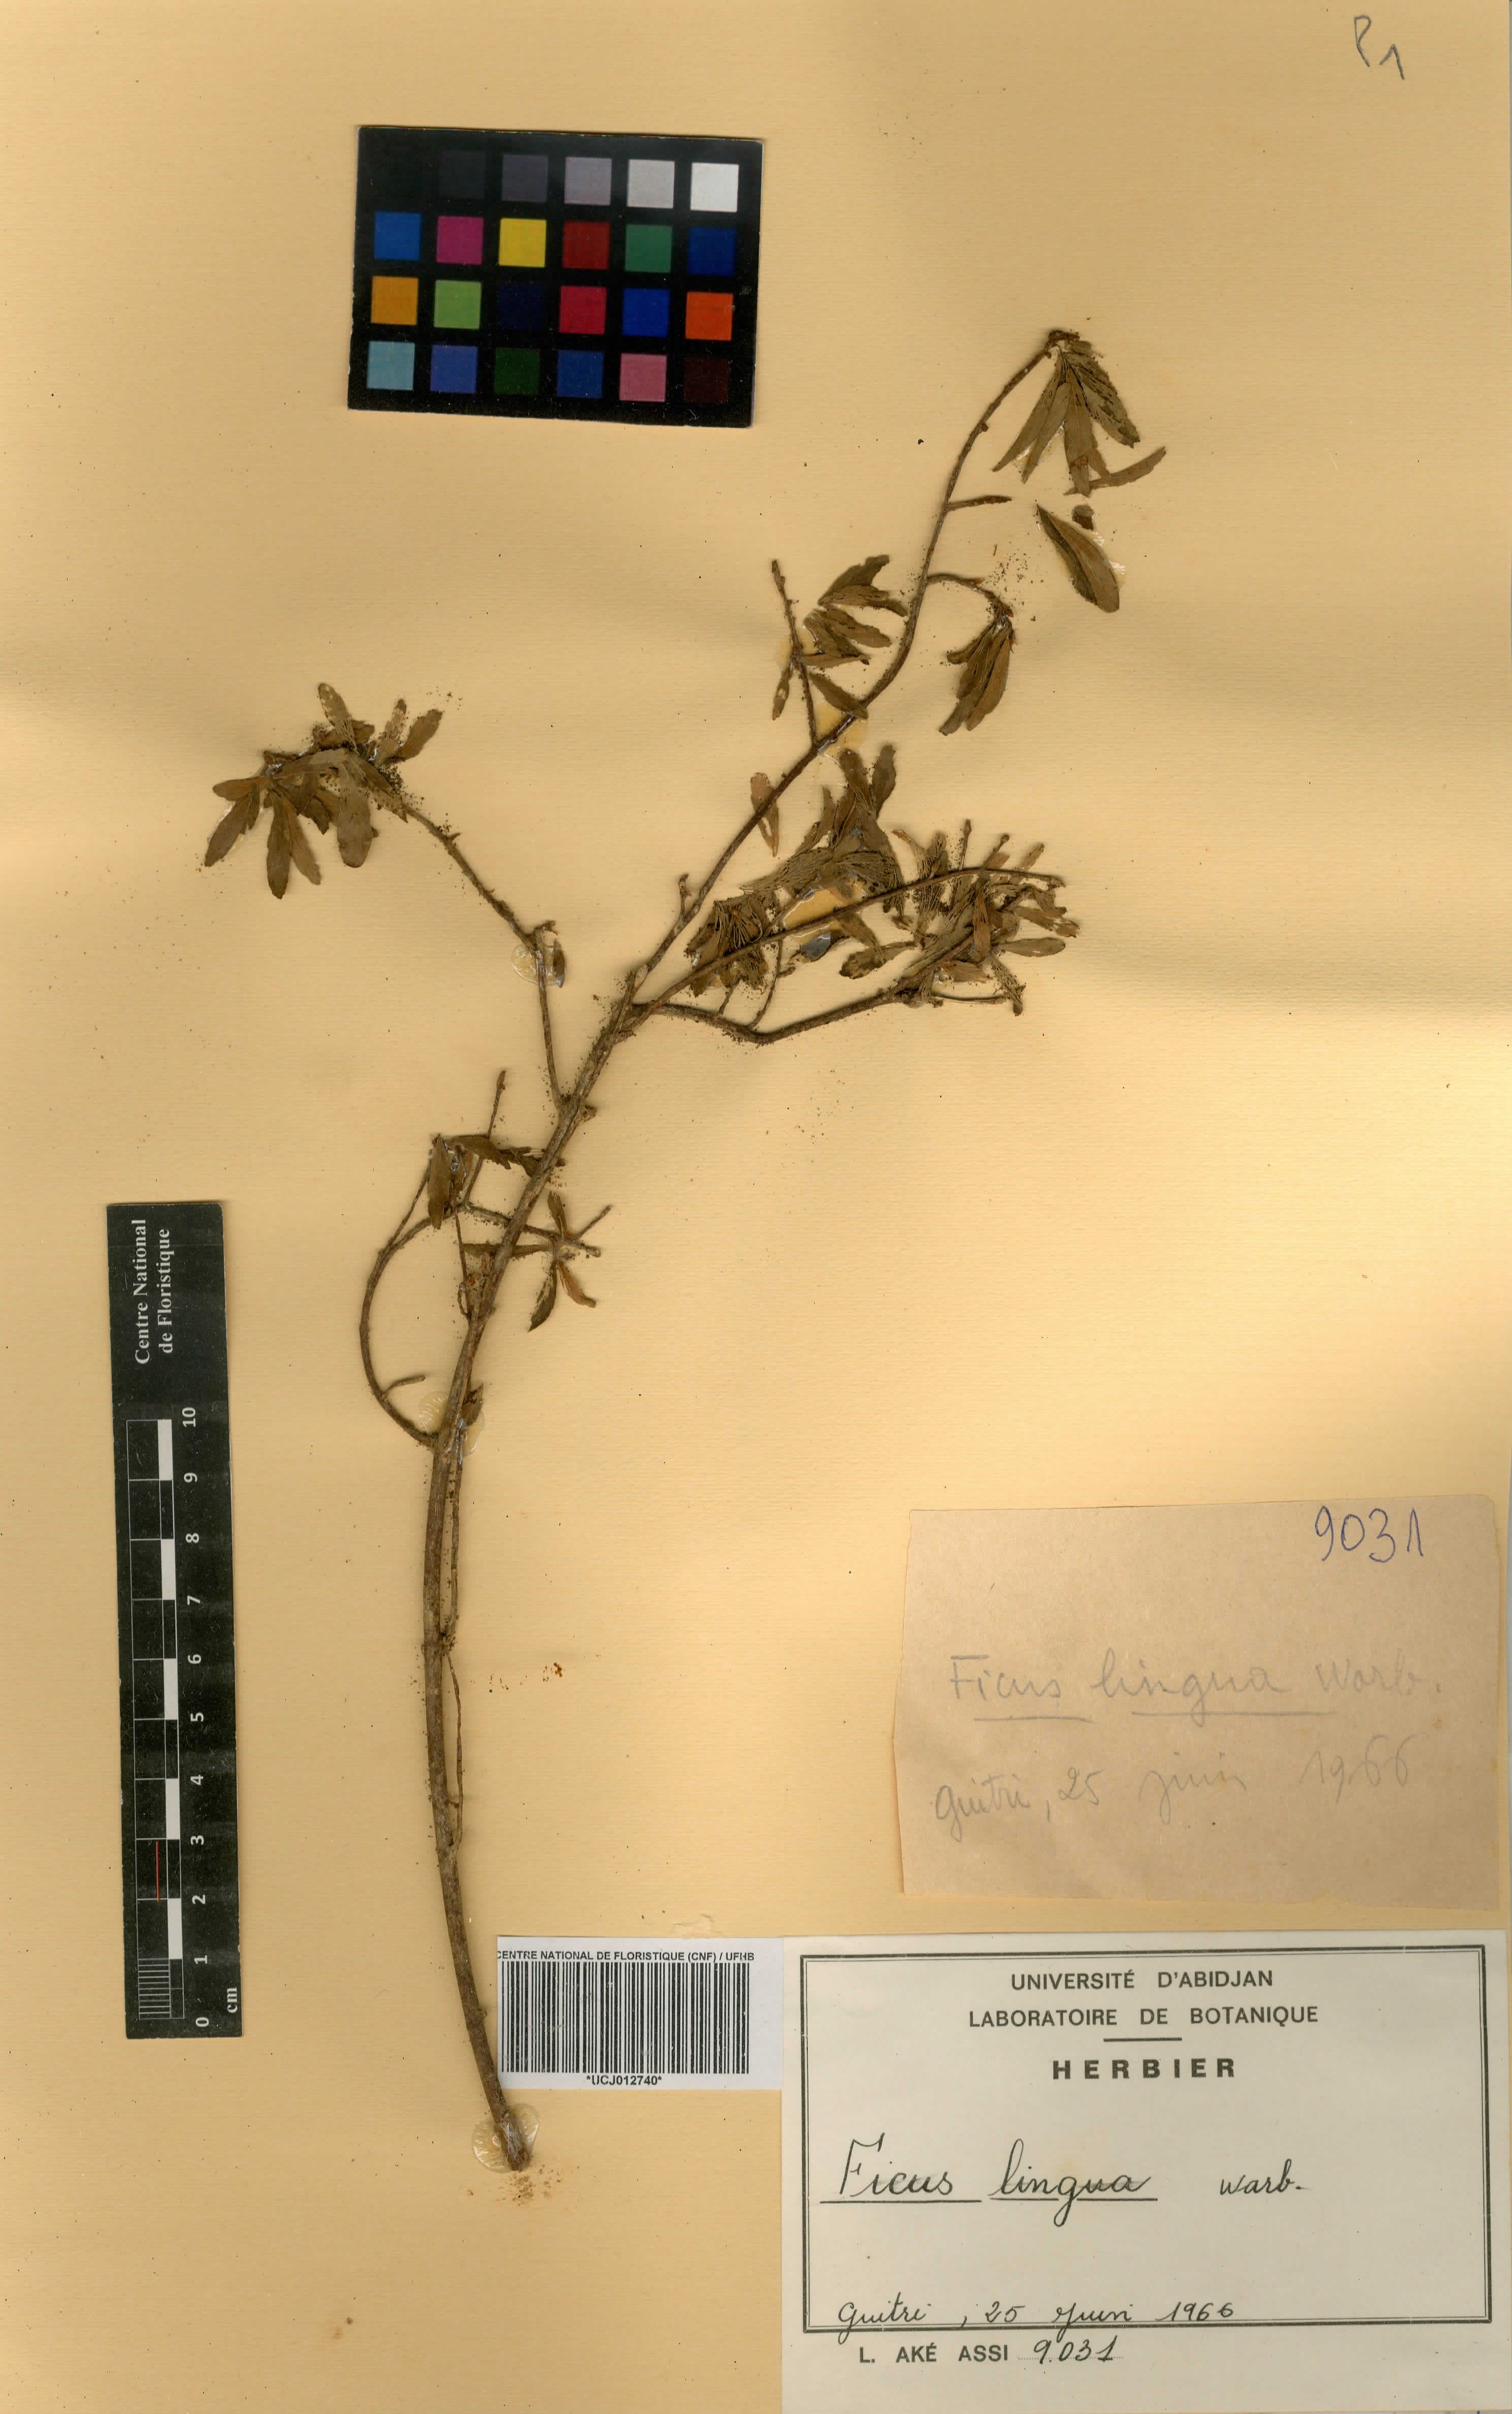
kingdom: Plantae
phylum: Tracheophyta
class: Magnoliopsida
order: Rosales
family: Moraceae
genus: Ficus
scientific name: Ficus lingua
